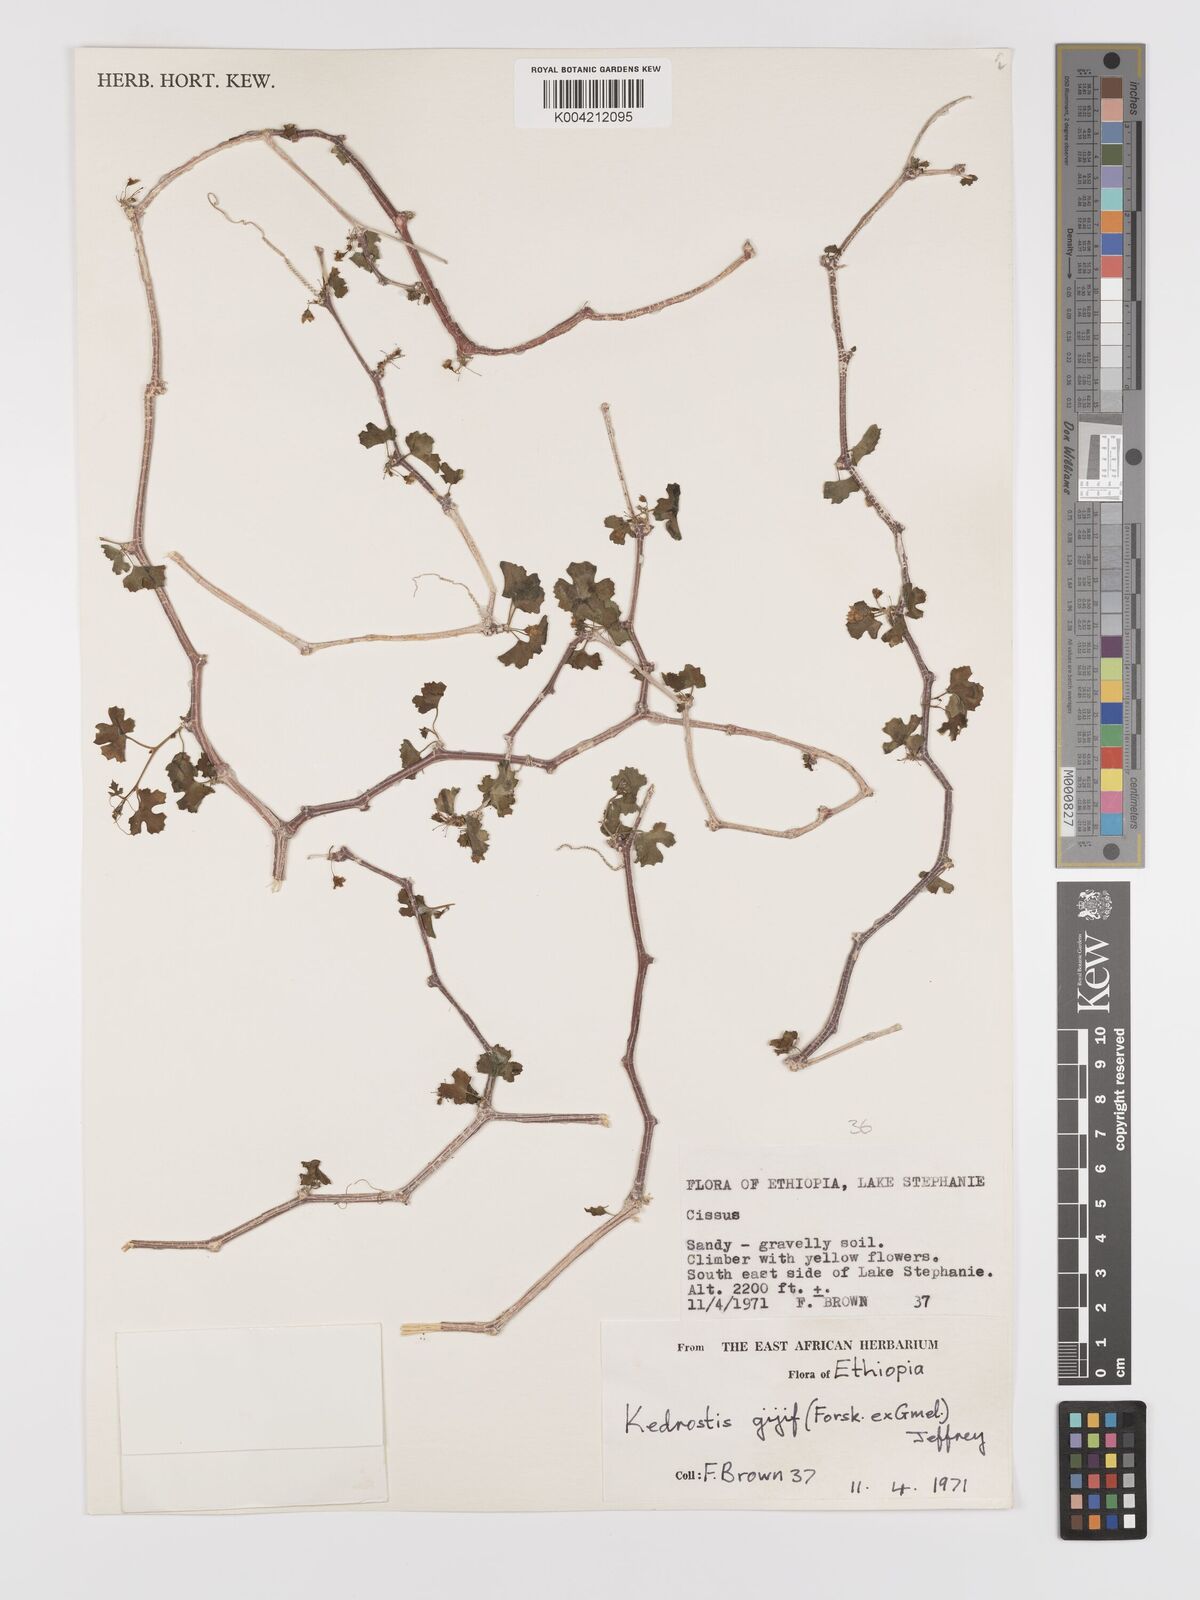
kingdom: Plantae
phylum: Tracheophyta
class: Magnoliopsida
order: Cucurbitales
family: Cucurbitaceae
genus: Kedrostis
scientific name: Kedrostis gijef
